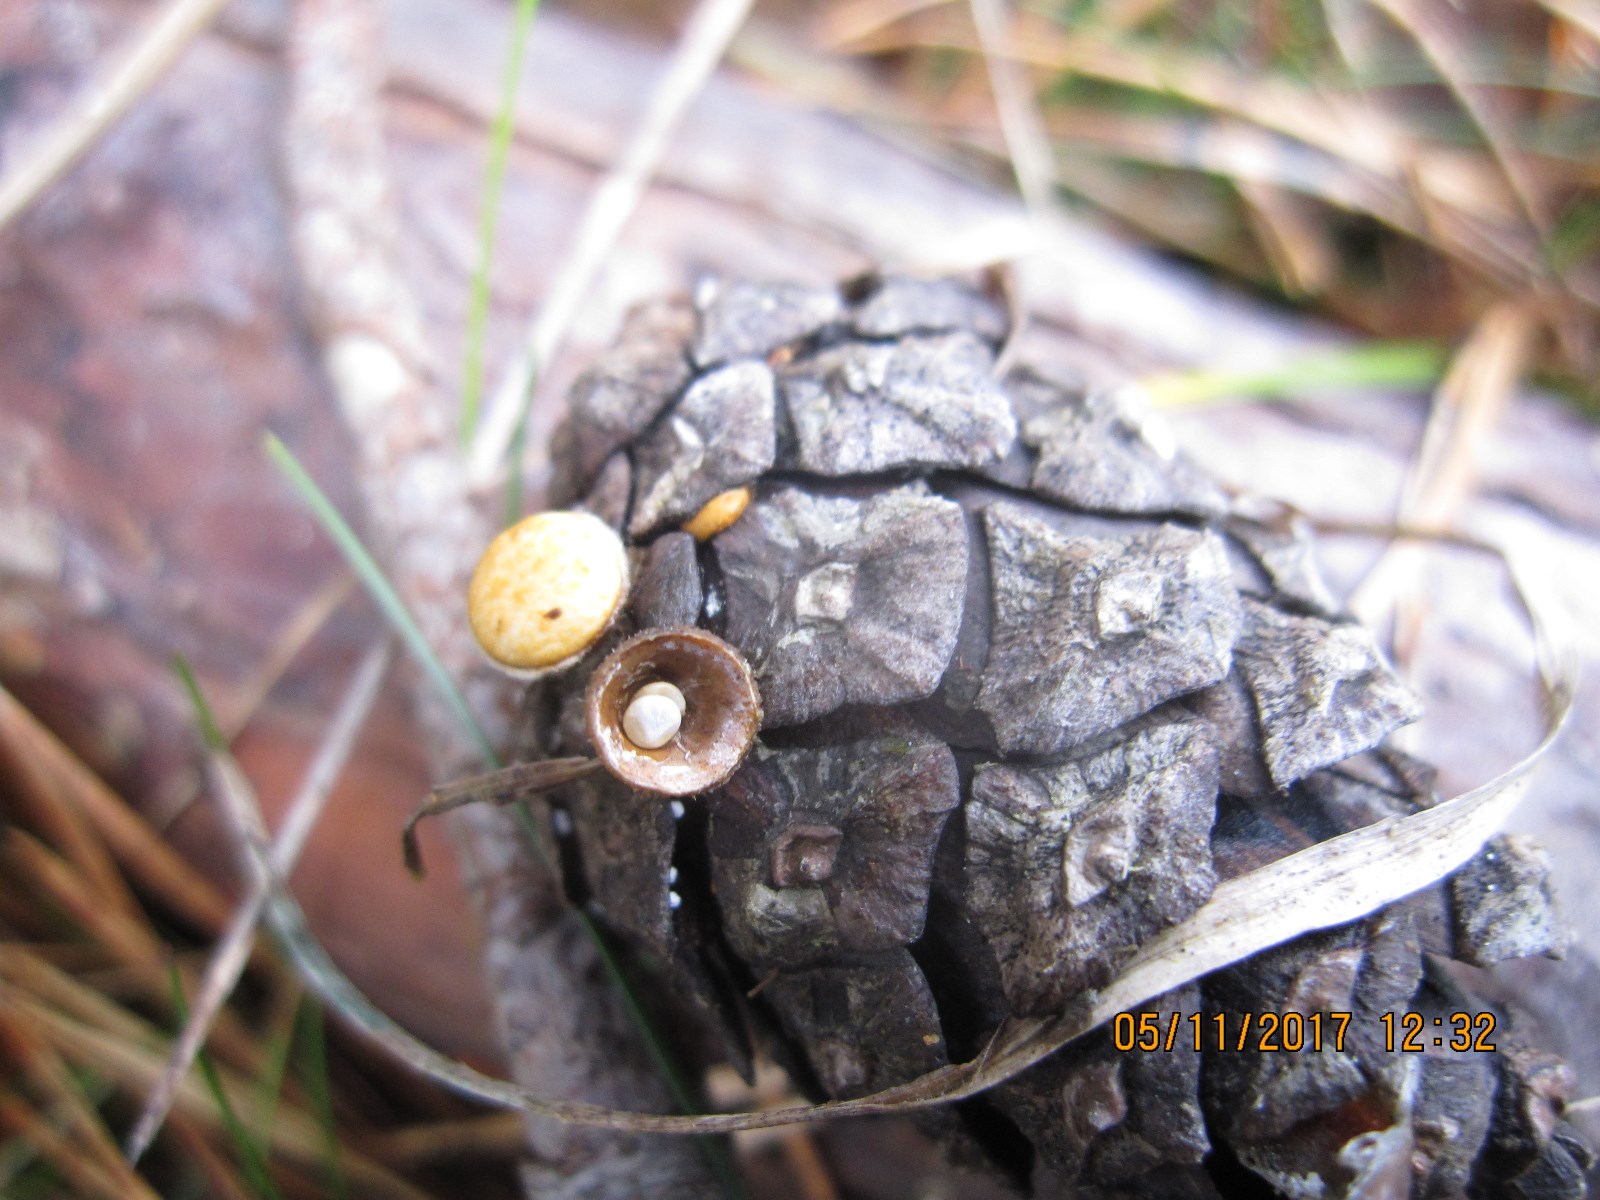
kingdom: Fungi
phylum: Basidiomycota
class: Agaricomycetes
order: Agaricales
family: Nidulariaceae
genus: Crucibulum
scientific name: Crucibulum crucibuliforme
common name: krukkesvamp
